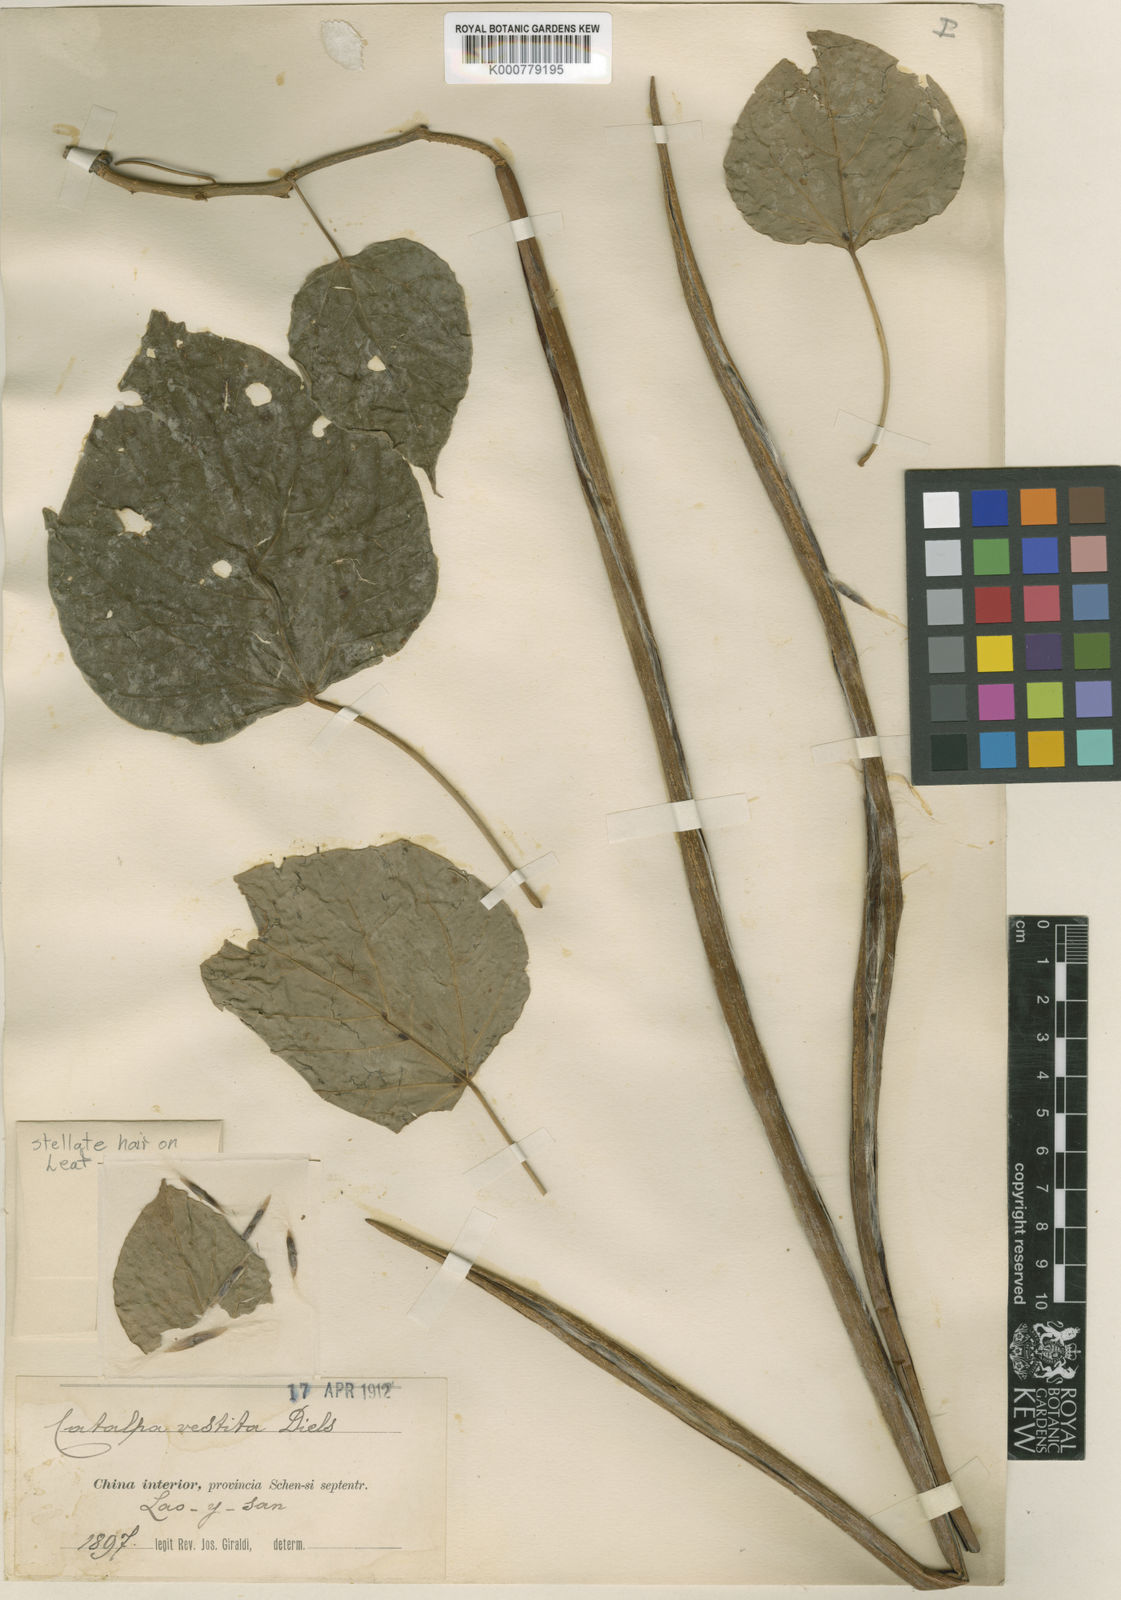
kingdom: Plantae
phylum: Tracheophyta
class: Magnoliopsida
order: Lamiales
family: Bignoniaceae
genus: Catalpa
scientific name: Catalpa bungei
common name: Manchurian catalpa
